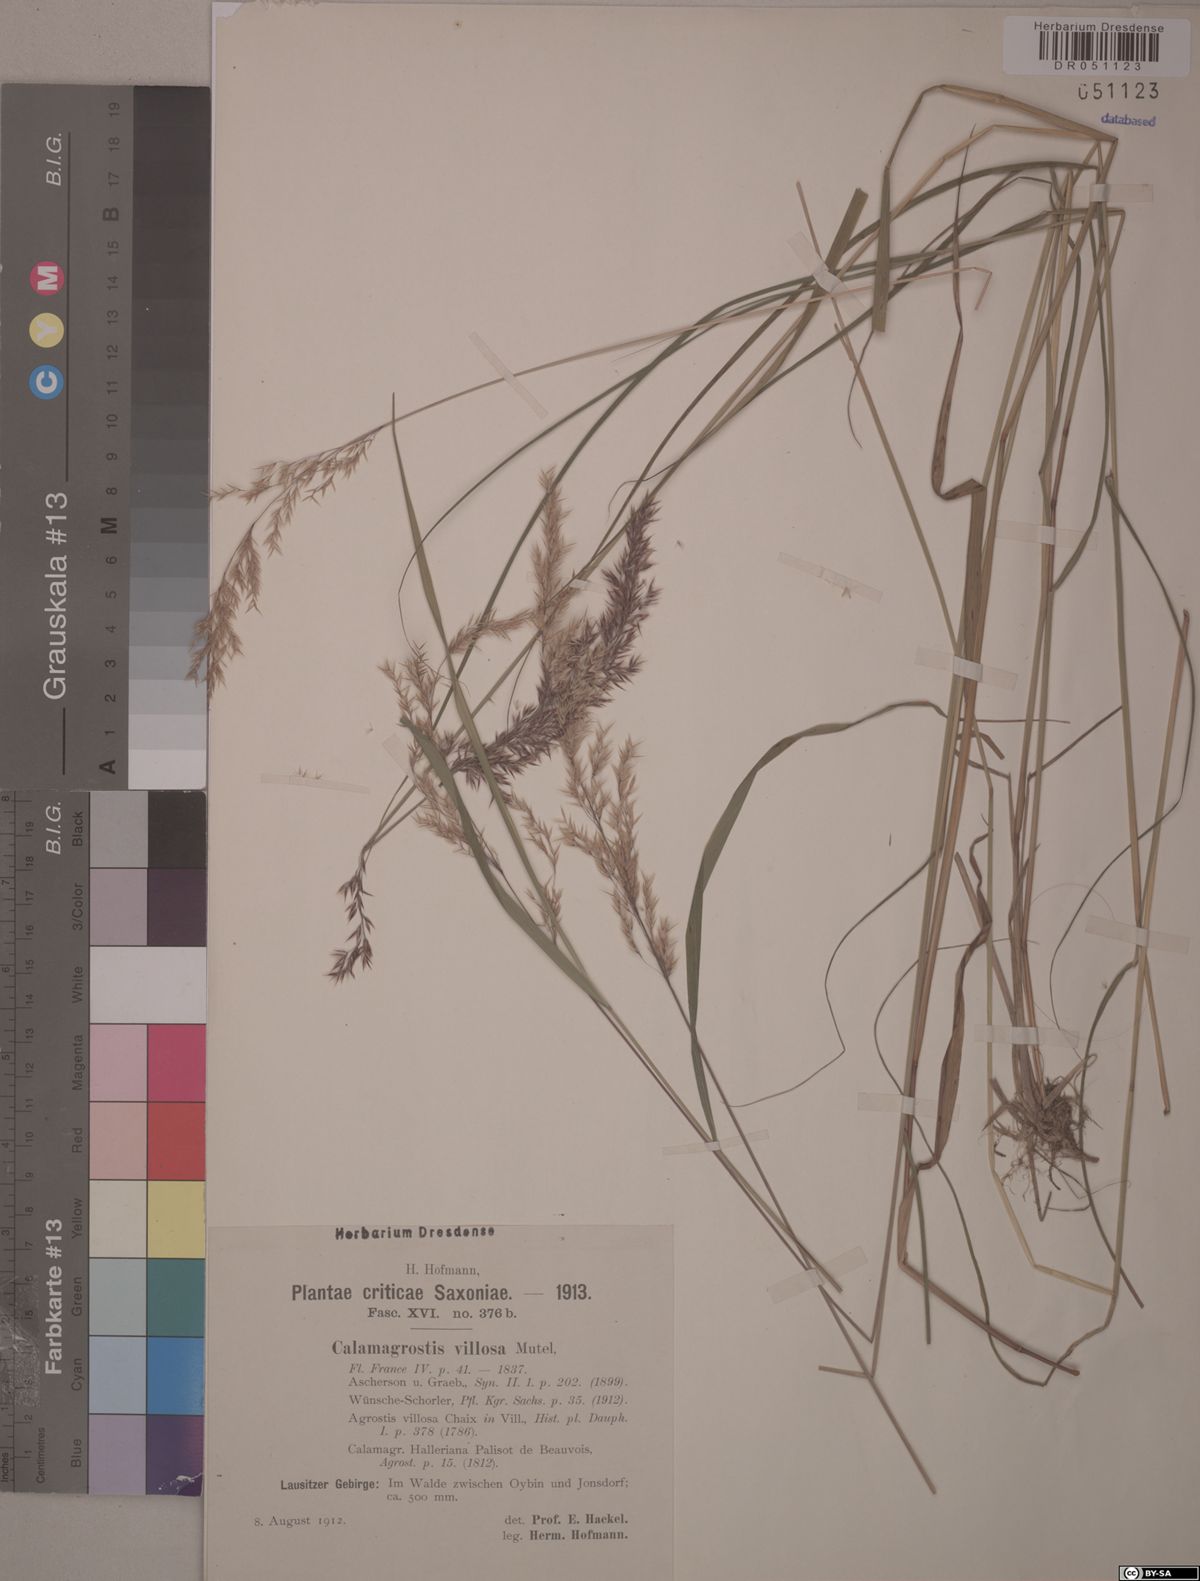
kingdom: Plantae
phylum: Tracheophyta
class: Liliopsida
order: Poales
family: Poaceae
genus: Calamagrostis
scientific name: Calamagrostis villosa
